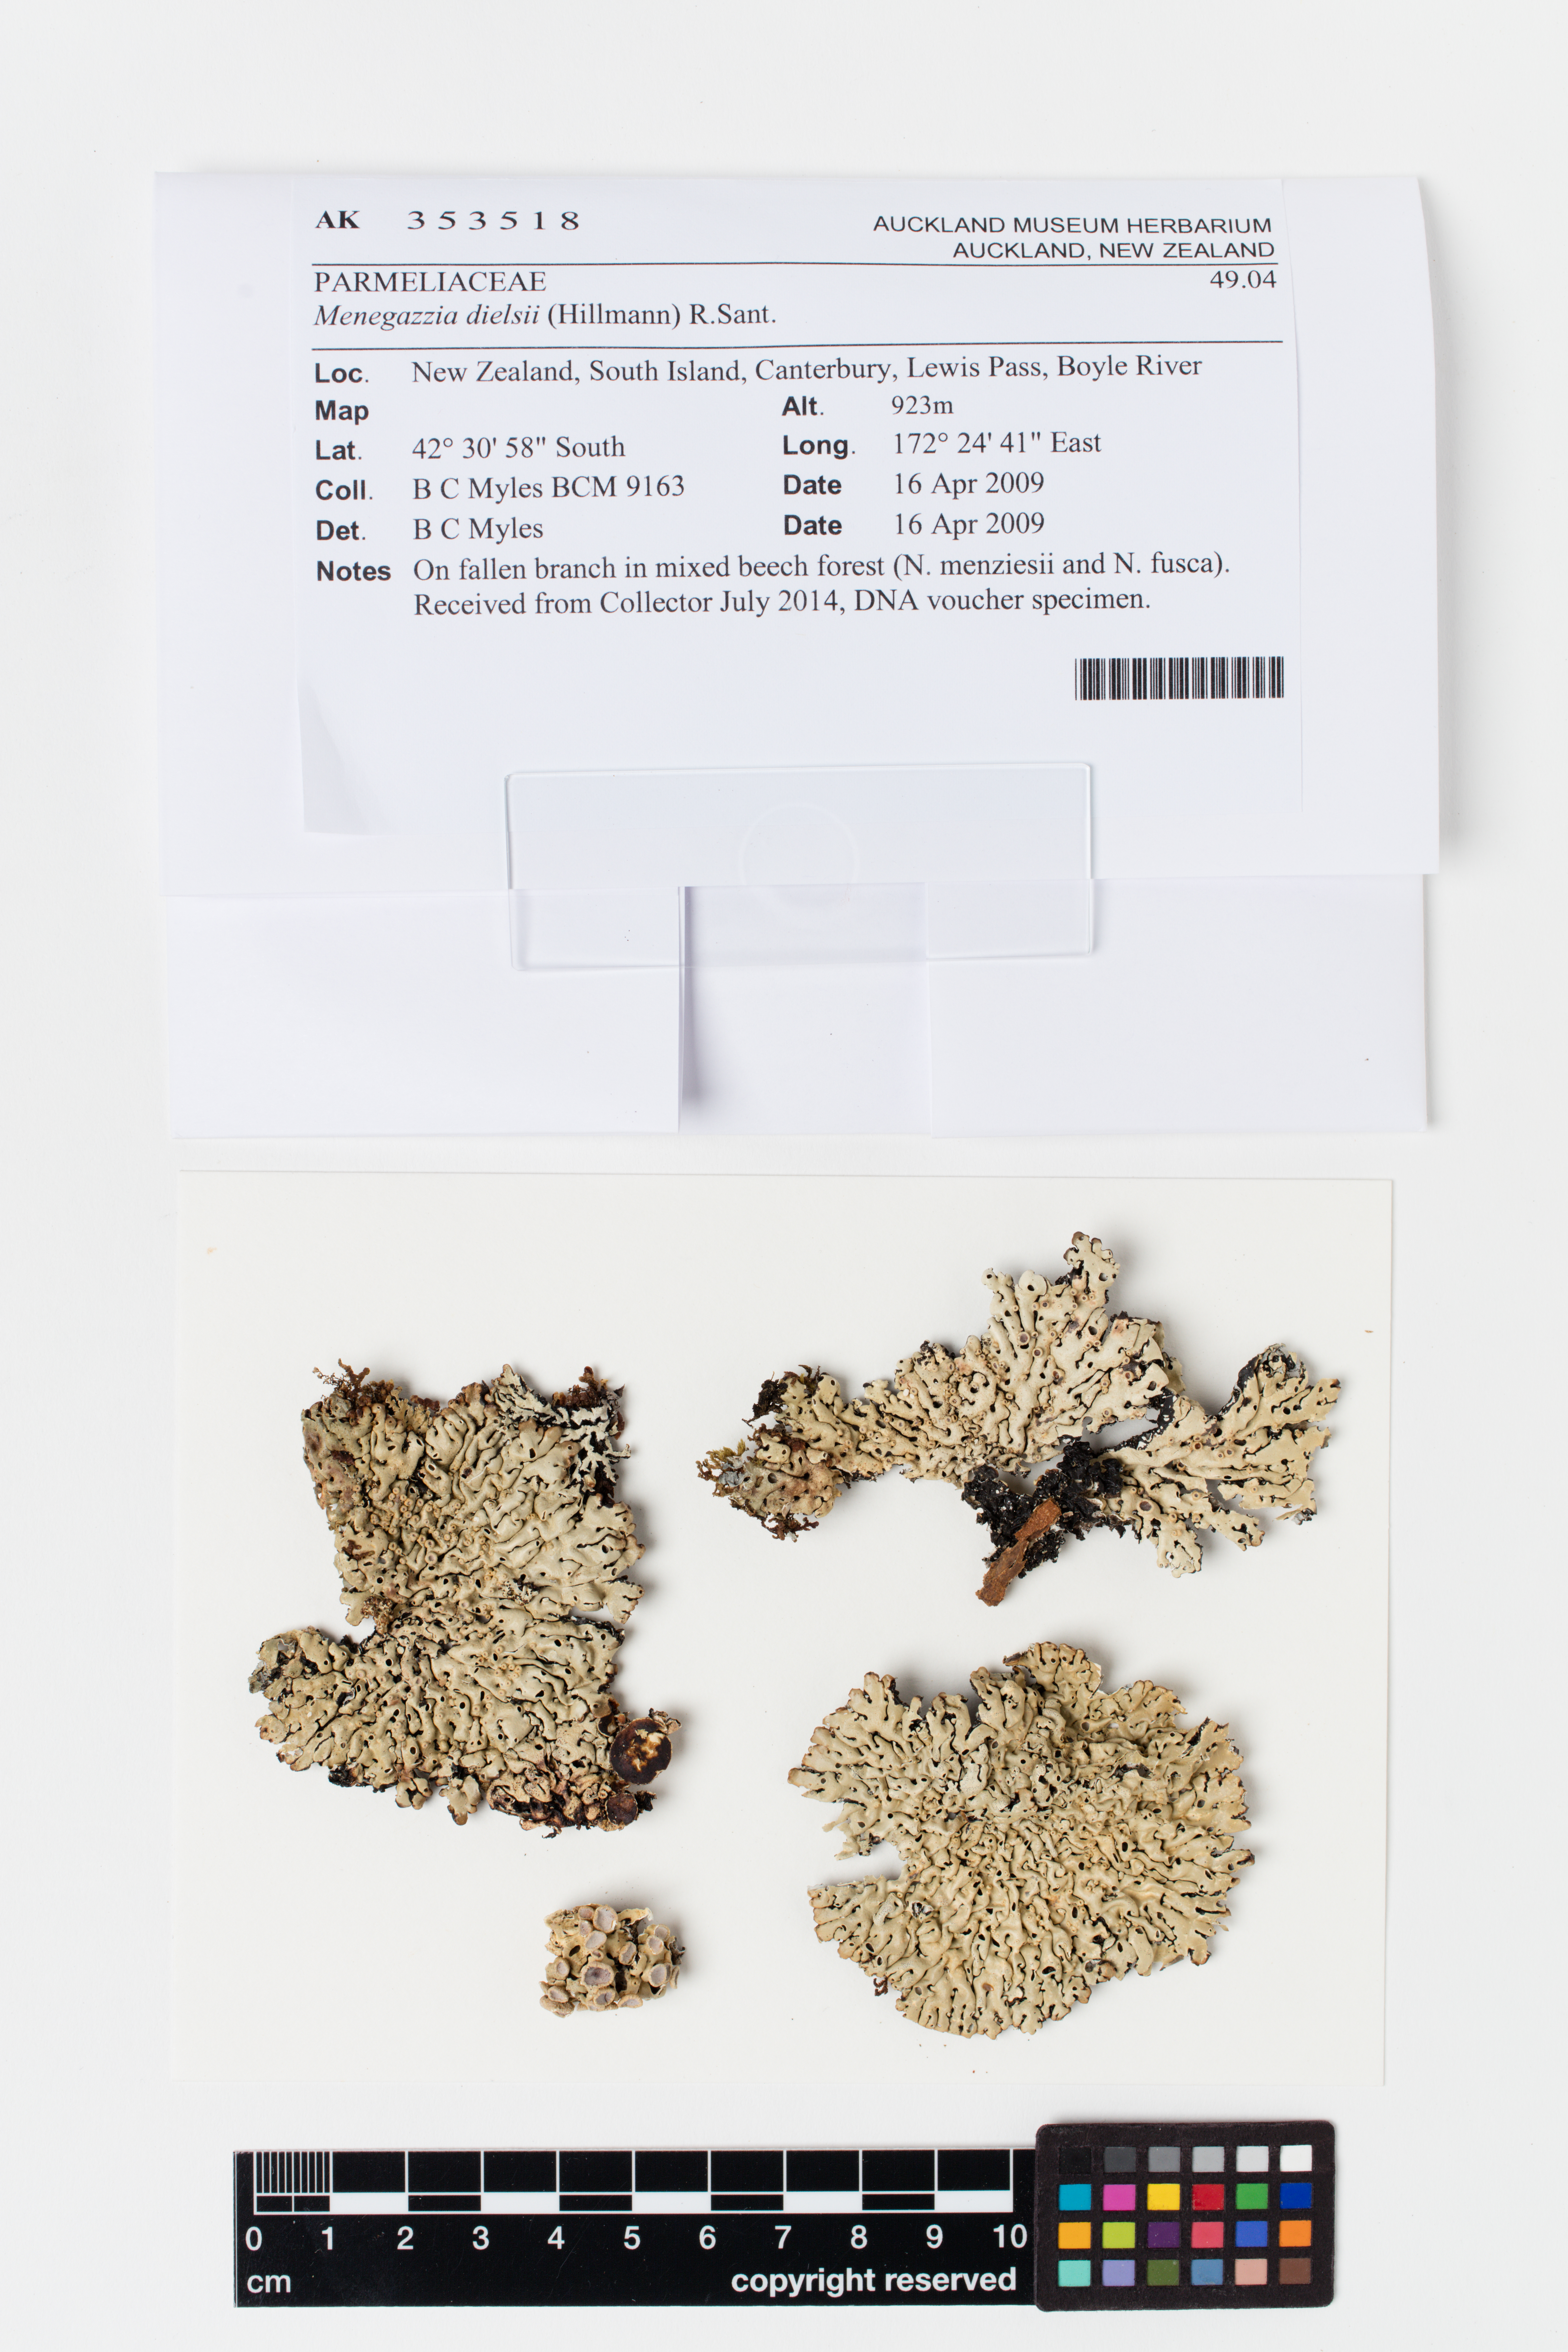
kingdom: Fungi
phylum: Ascomycota
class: Lecanoromycetes
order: Lecanorales
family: Parmeliaceae
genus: Menegazzia
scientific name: Menegazzia dielsii
